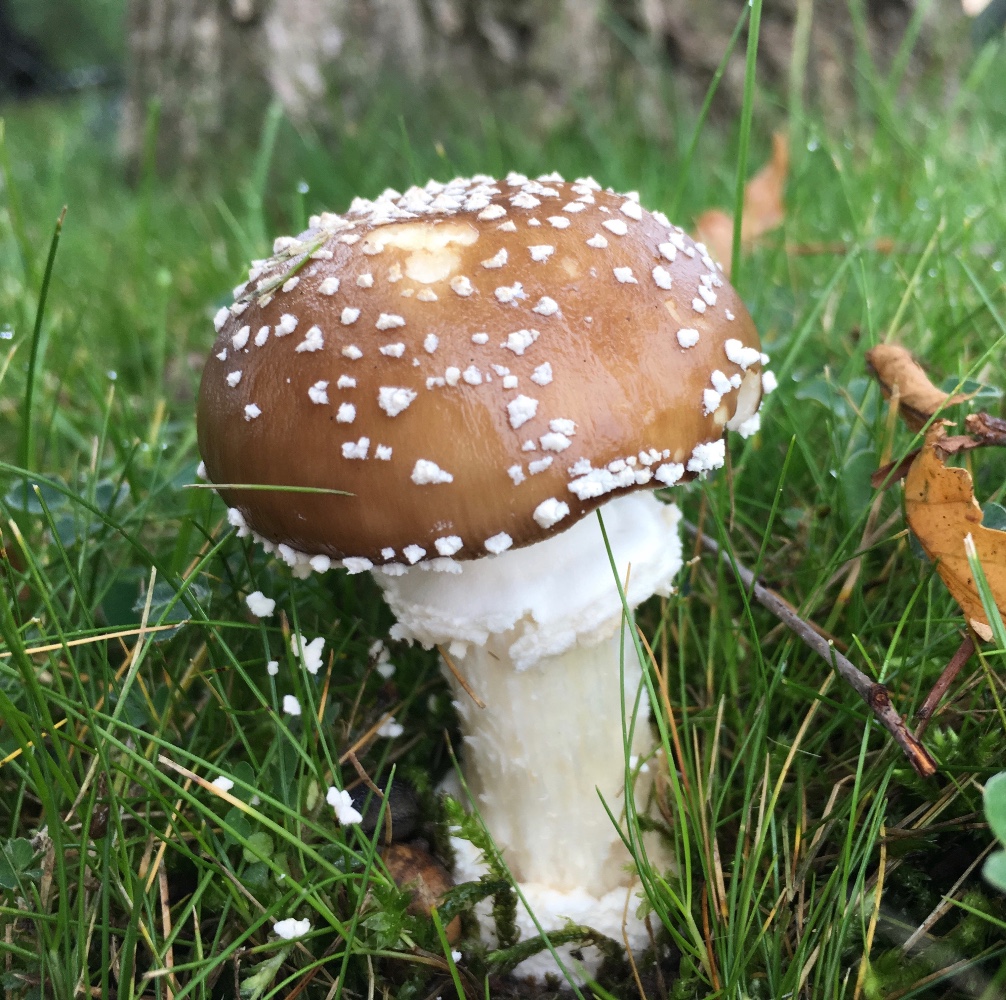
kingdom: Fungi
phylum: Basidiomycota
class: Agaricomycetes
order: Agaricales
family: Amanitaceae
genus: Amanita
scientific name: Amanita pantherina
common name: panter-fluesvamp
